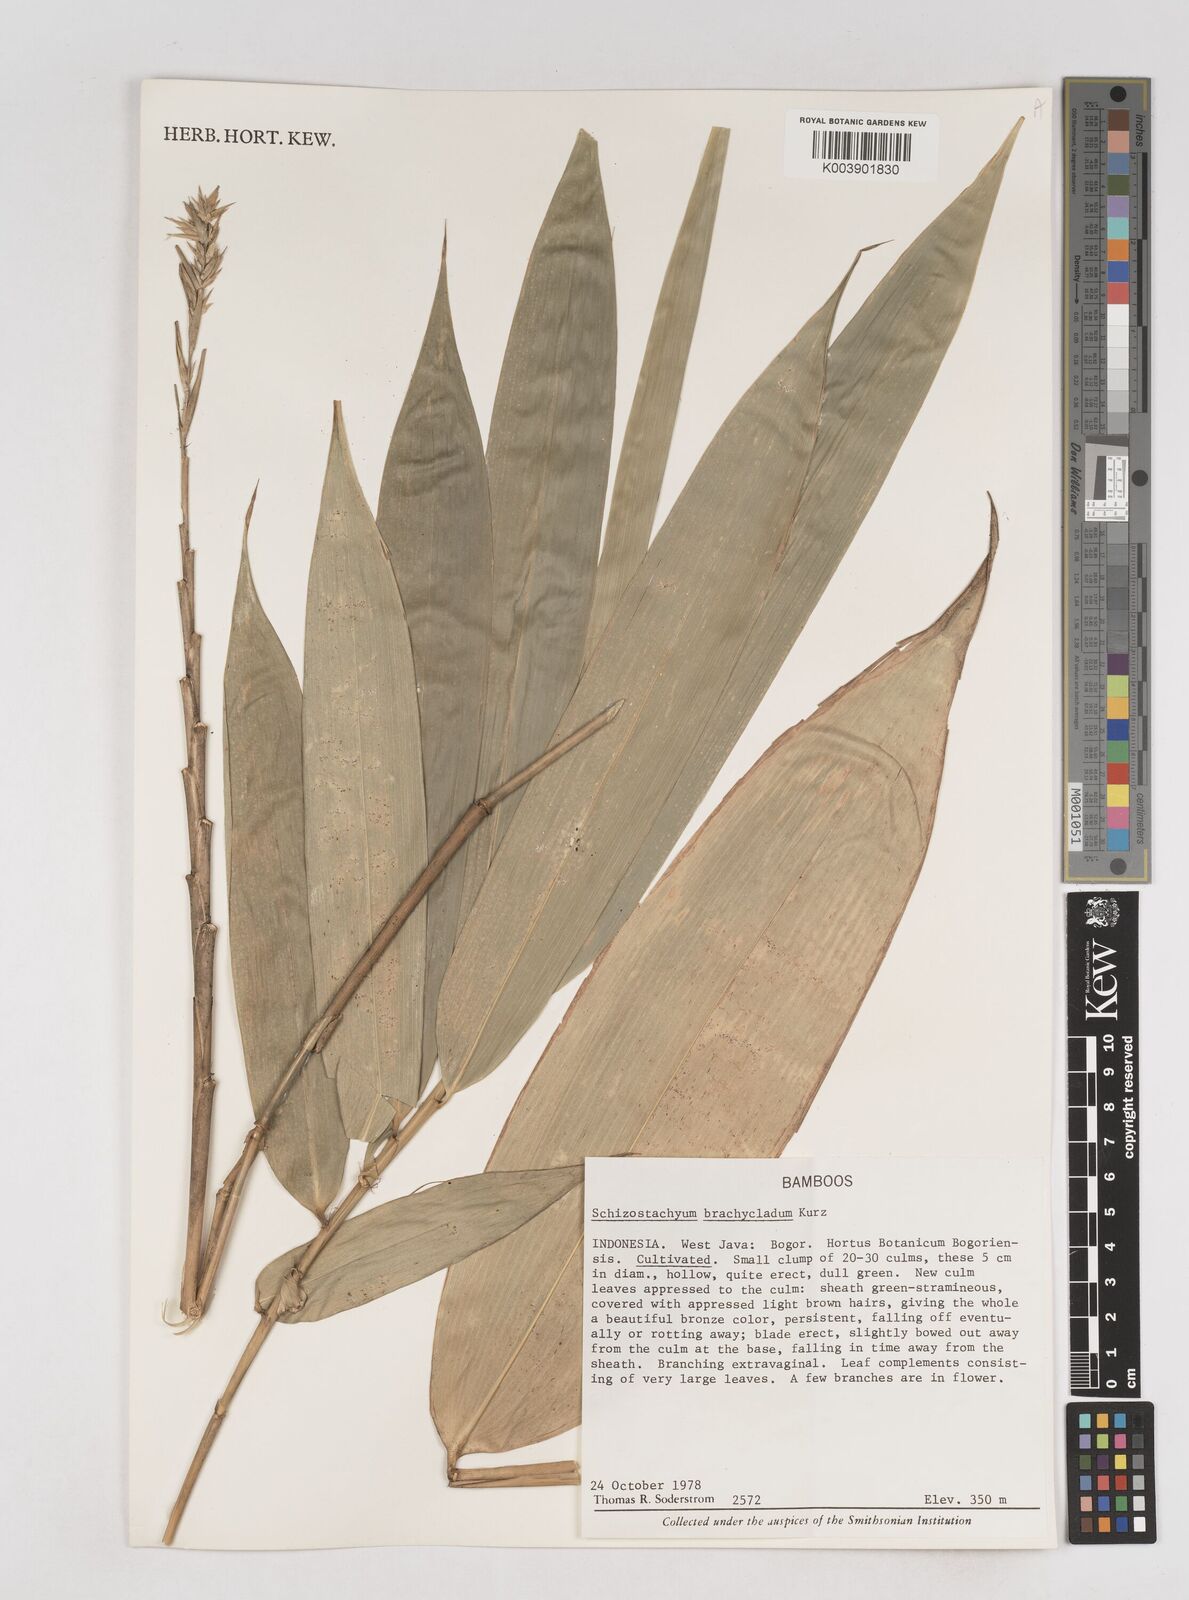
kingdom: Plantae
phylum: Tracheophyta
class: Liliopsida
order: Poales
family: Poaceae
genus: Schizostachyum
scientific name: Schizostachyum brachycladum
